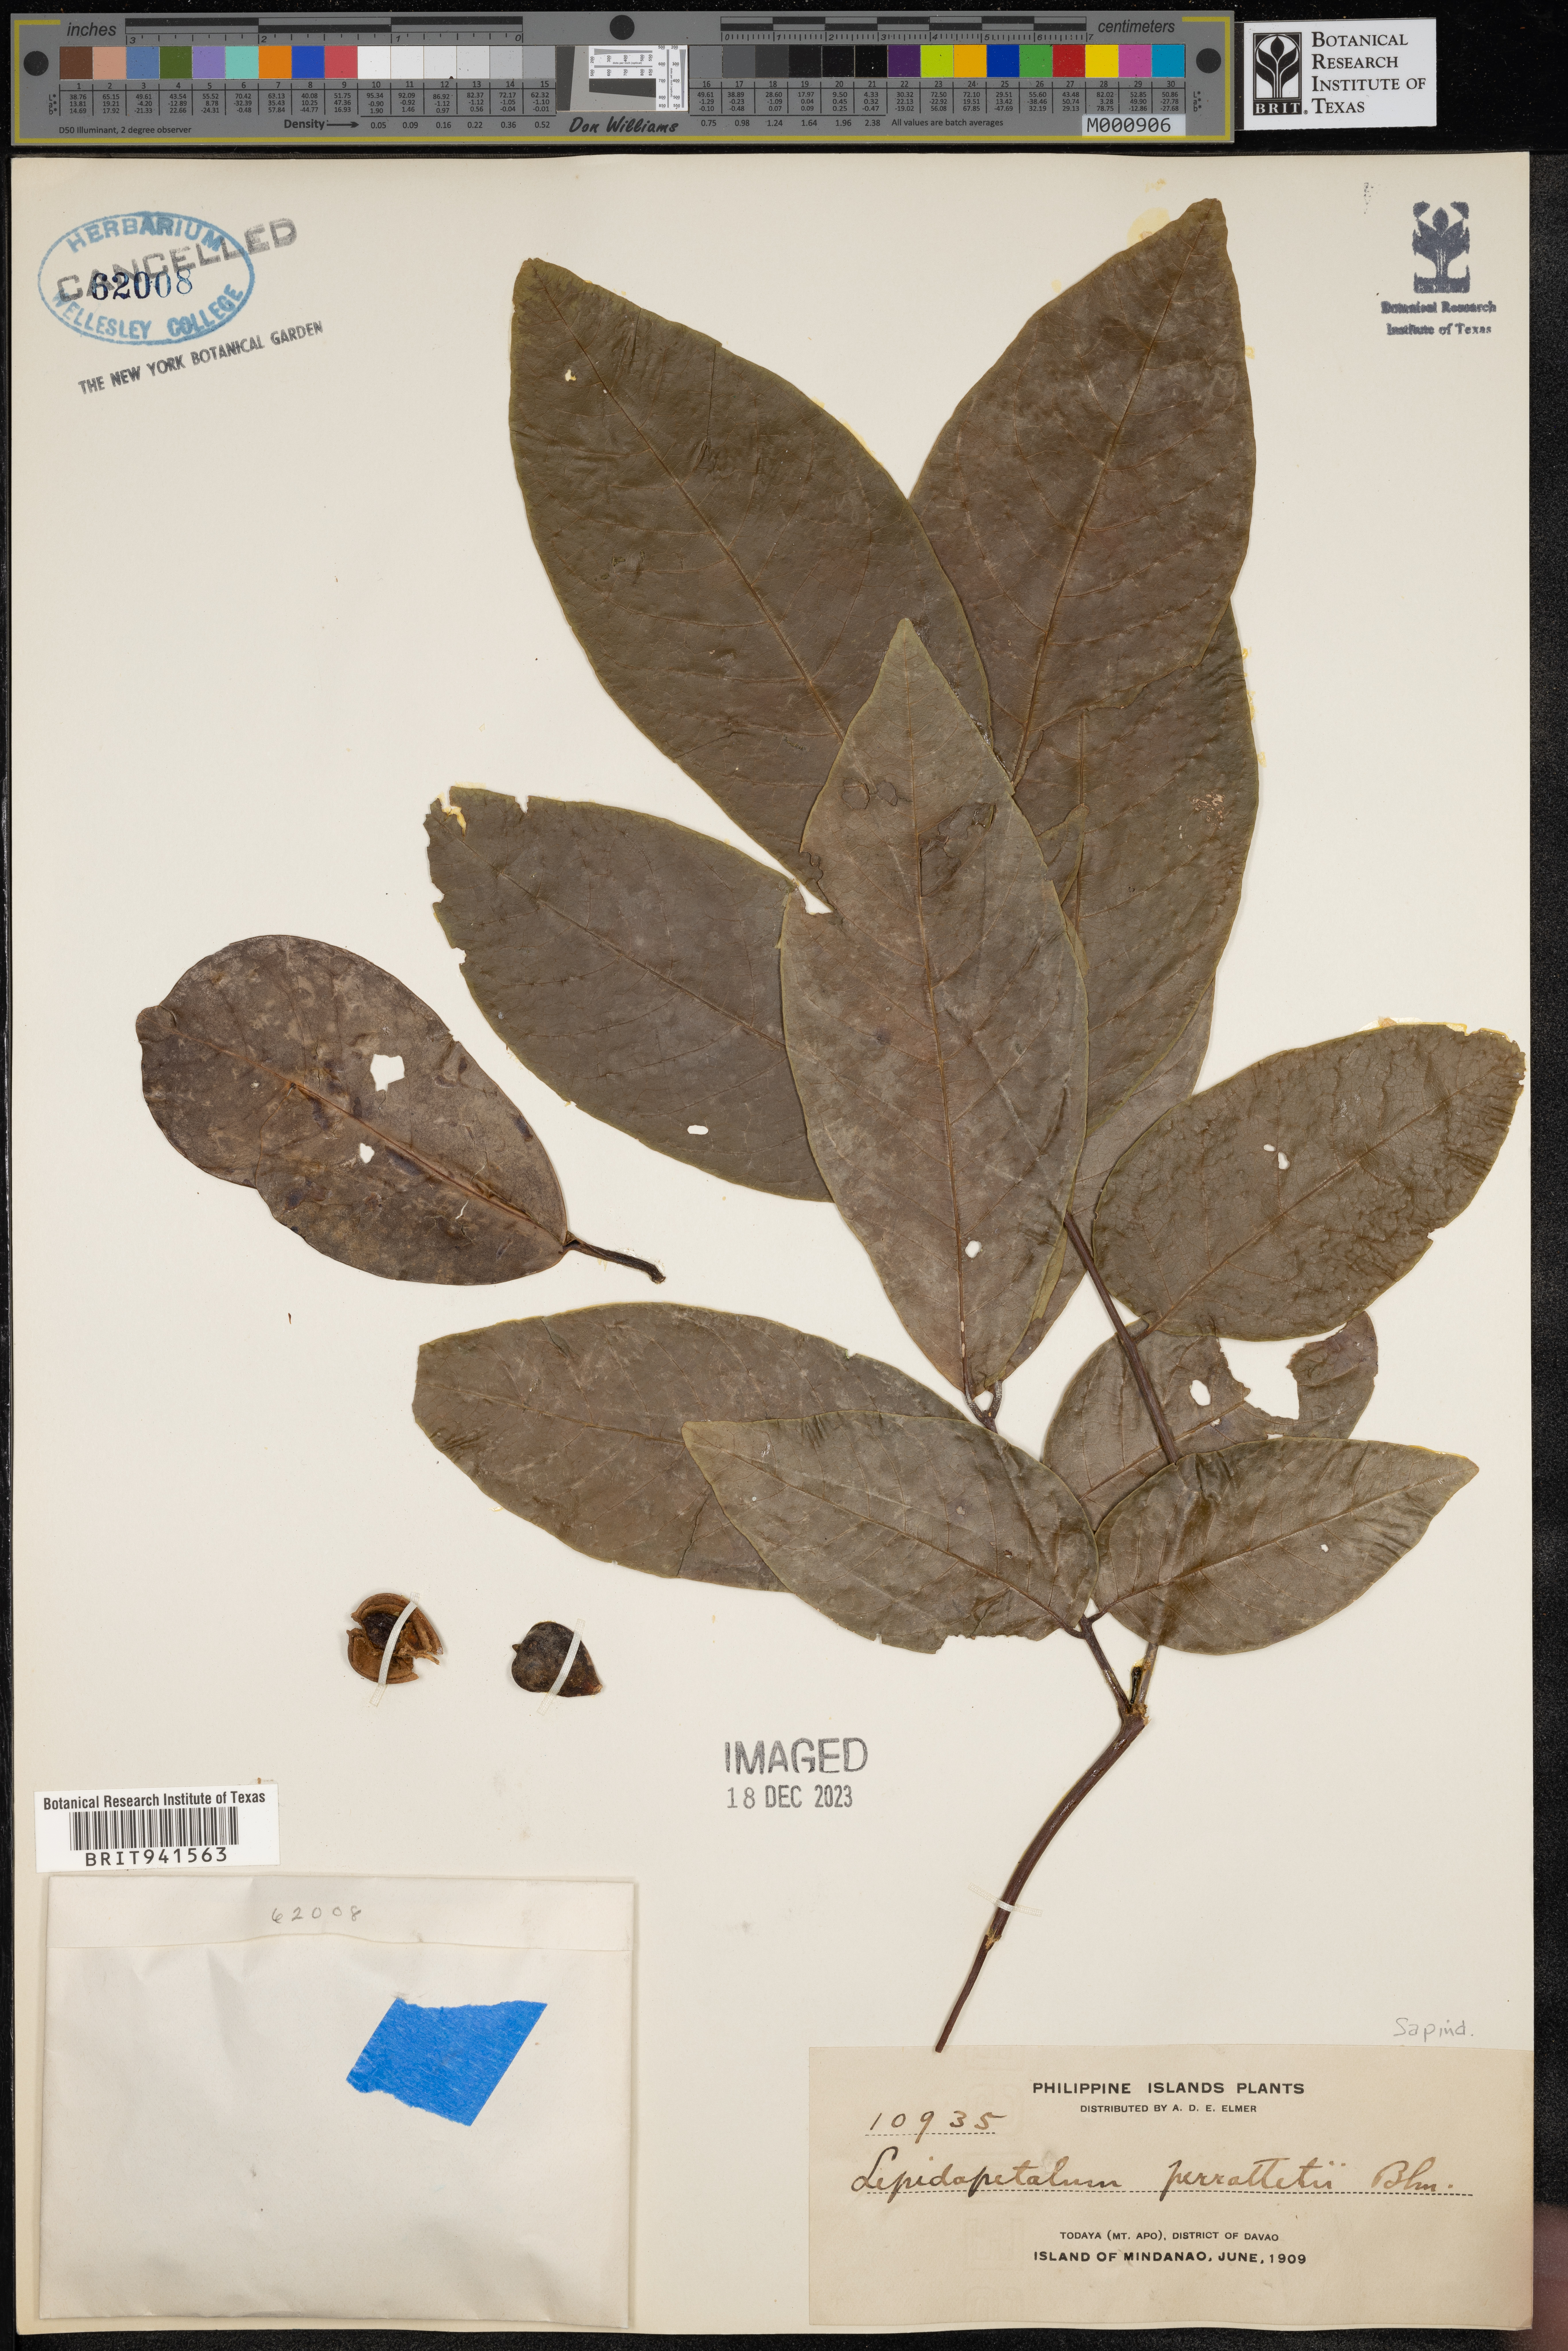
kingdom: Plantae
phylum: Tracheophyta
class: Magnoliopsida
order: Sapindales
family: Sapindaceae
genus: Lepidopetalum
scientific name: Lepidopetalum
